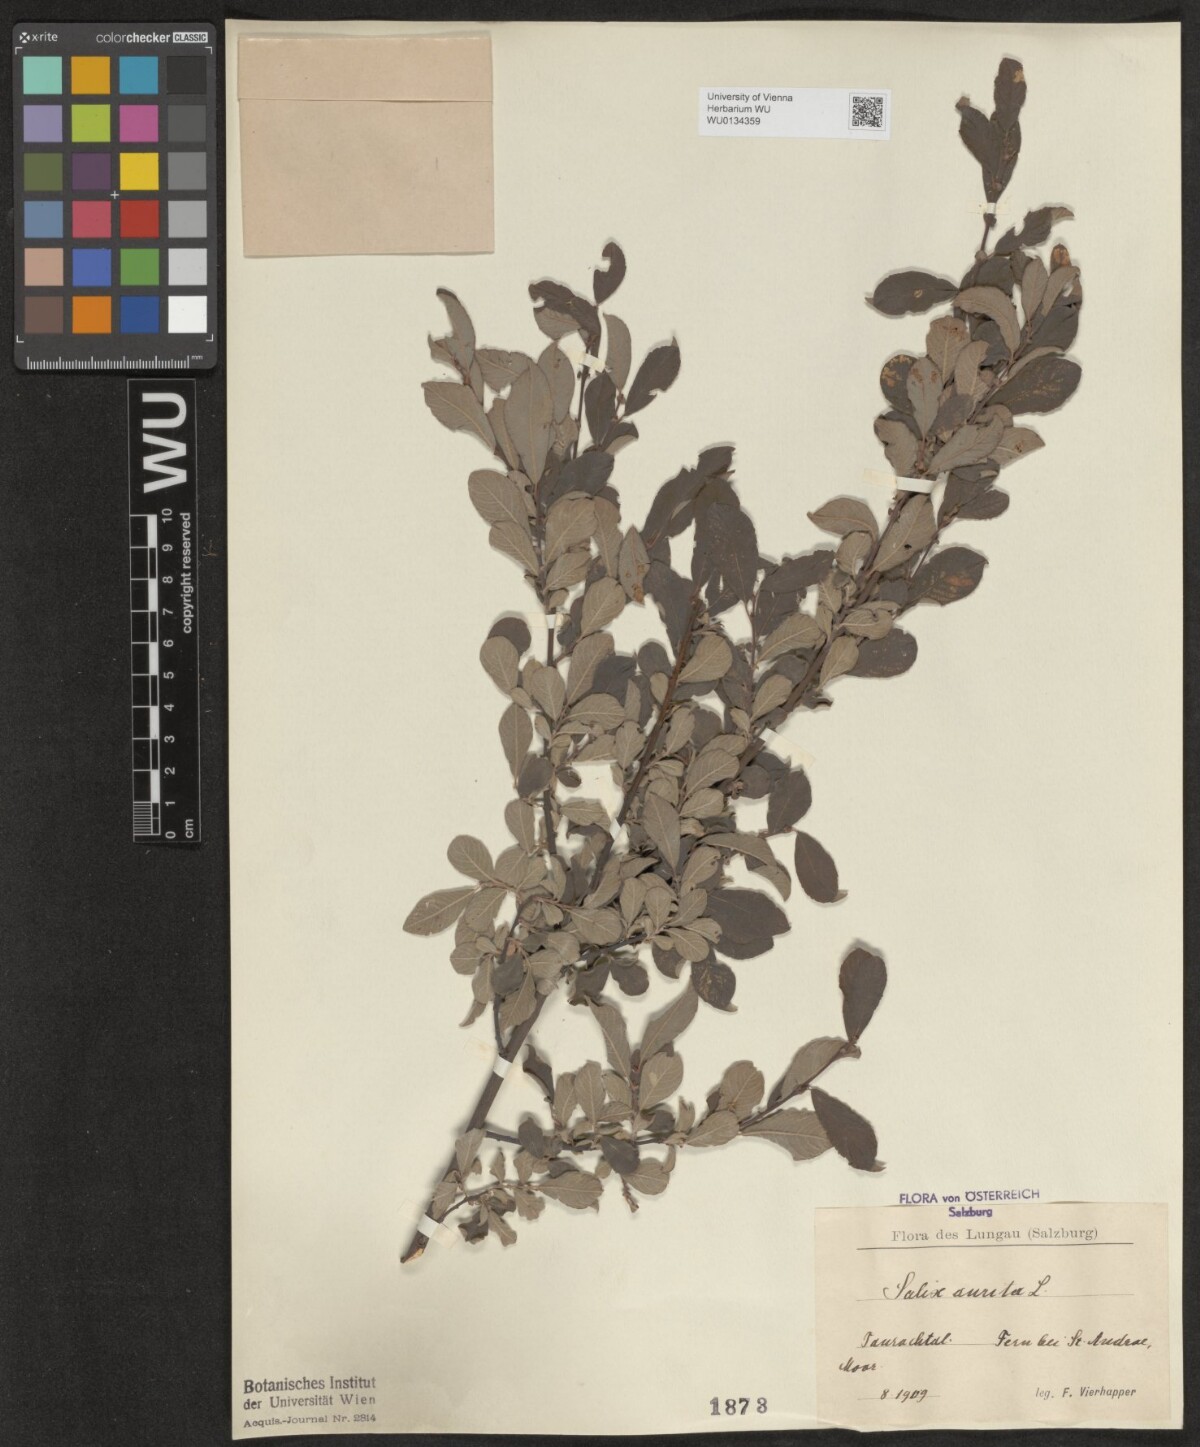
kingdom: Plantae
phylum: Tracheophyta
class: Magnoliopsida
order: Malpighiales
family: Salicaceae
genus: Salix
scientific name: Salix aurita
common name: Eared willow
